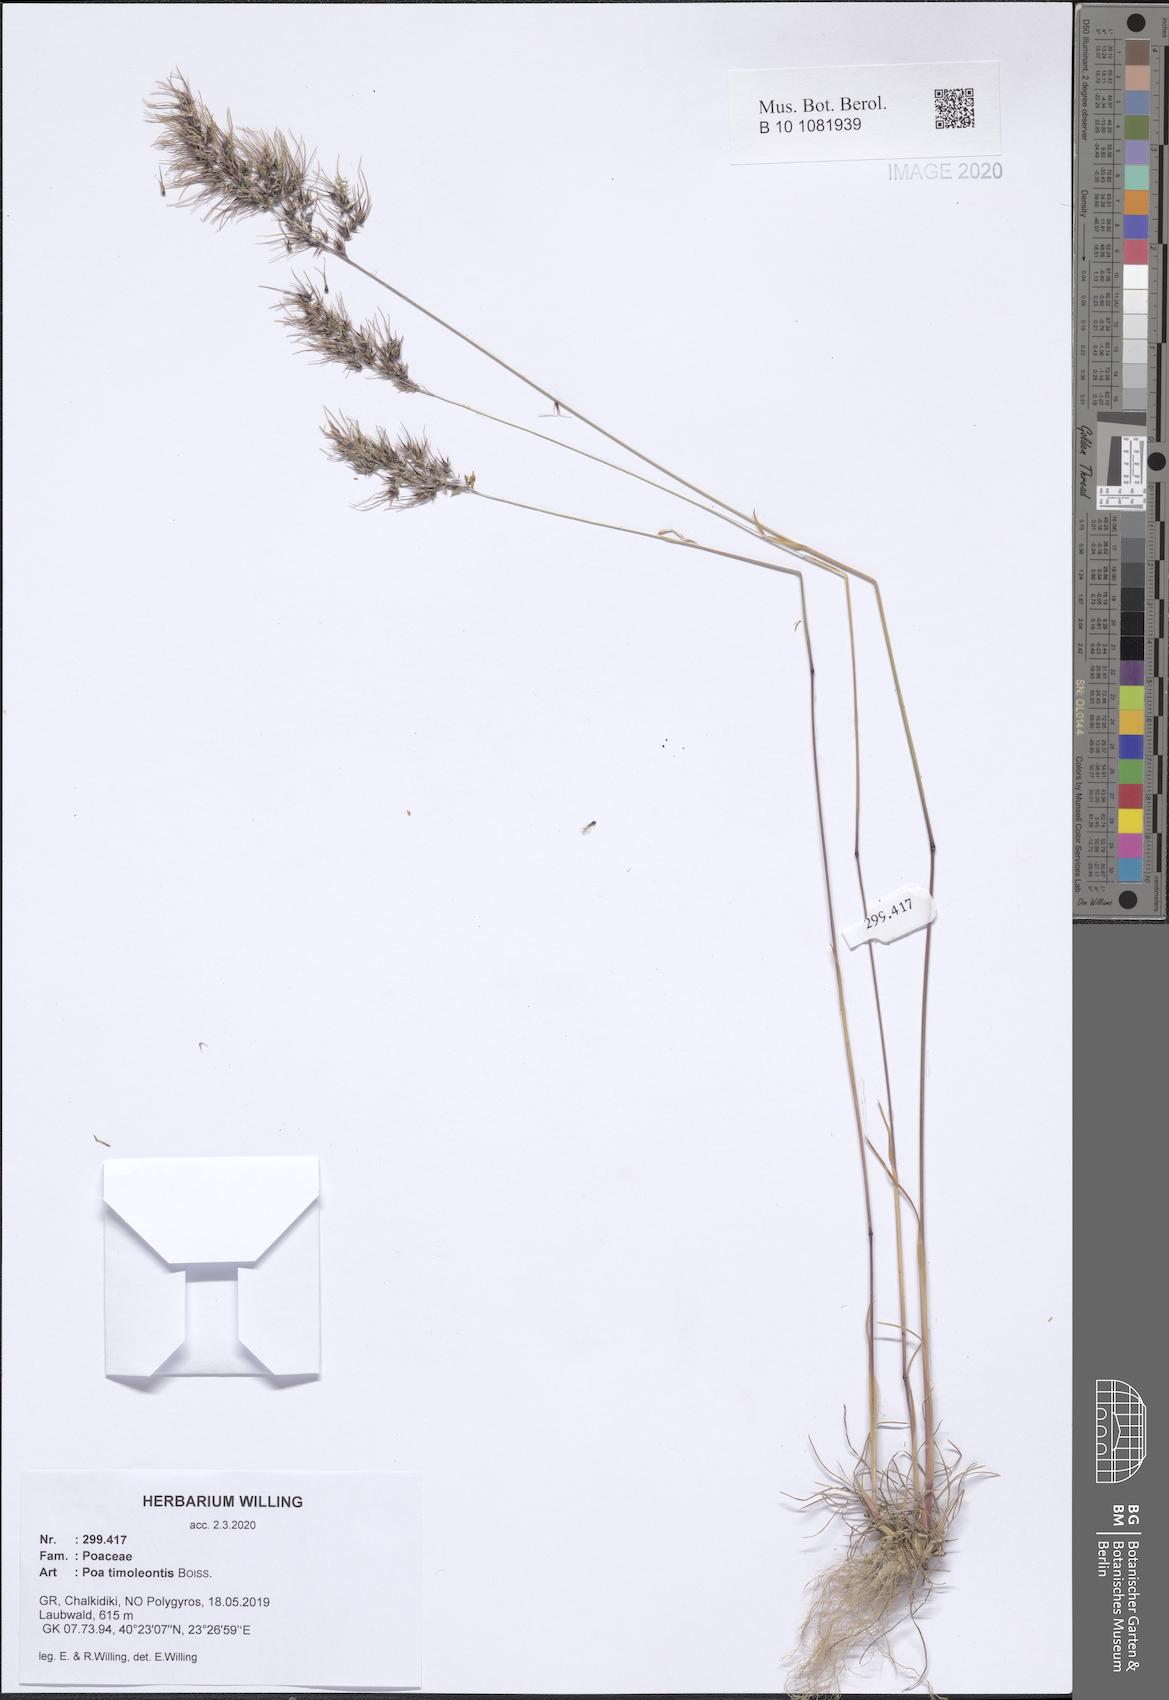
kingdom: Plantae
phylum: Tracheophyta
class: Liliopsida
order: Poales
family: Poaceae
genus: Poa
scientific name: Poa timoleontis
